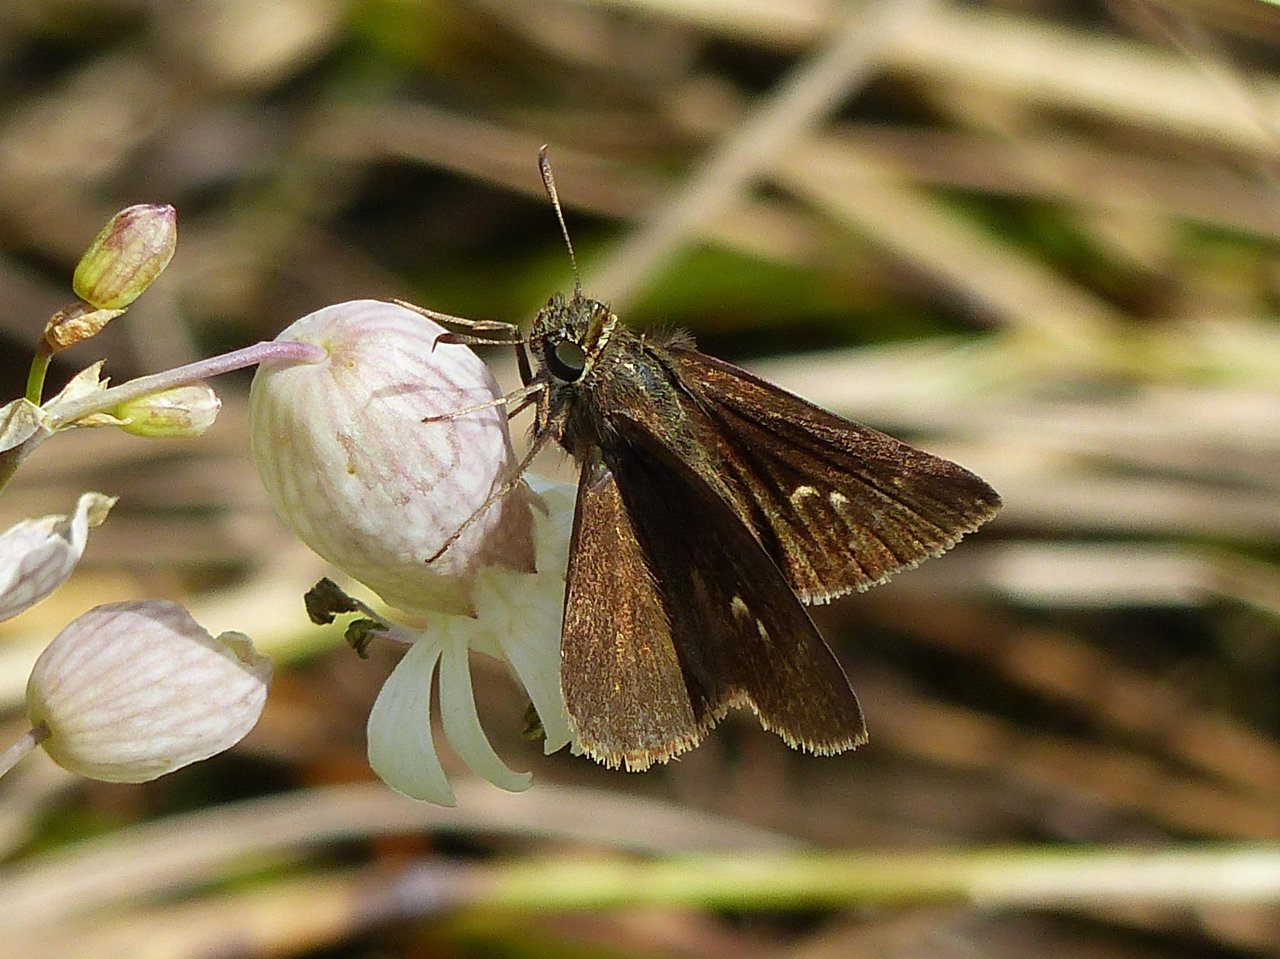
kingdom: Animalia
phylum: Arthropoda
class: Insecta
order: Lepidoptera
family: Hesperiidae
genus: Euphyes
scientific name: Euphyes vestris
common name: Dun Skipper
